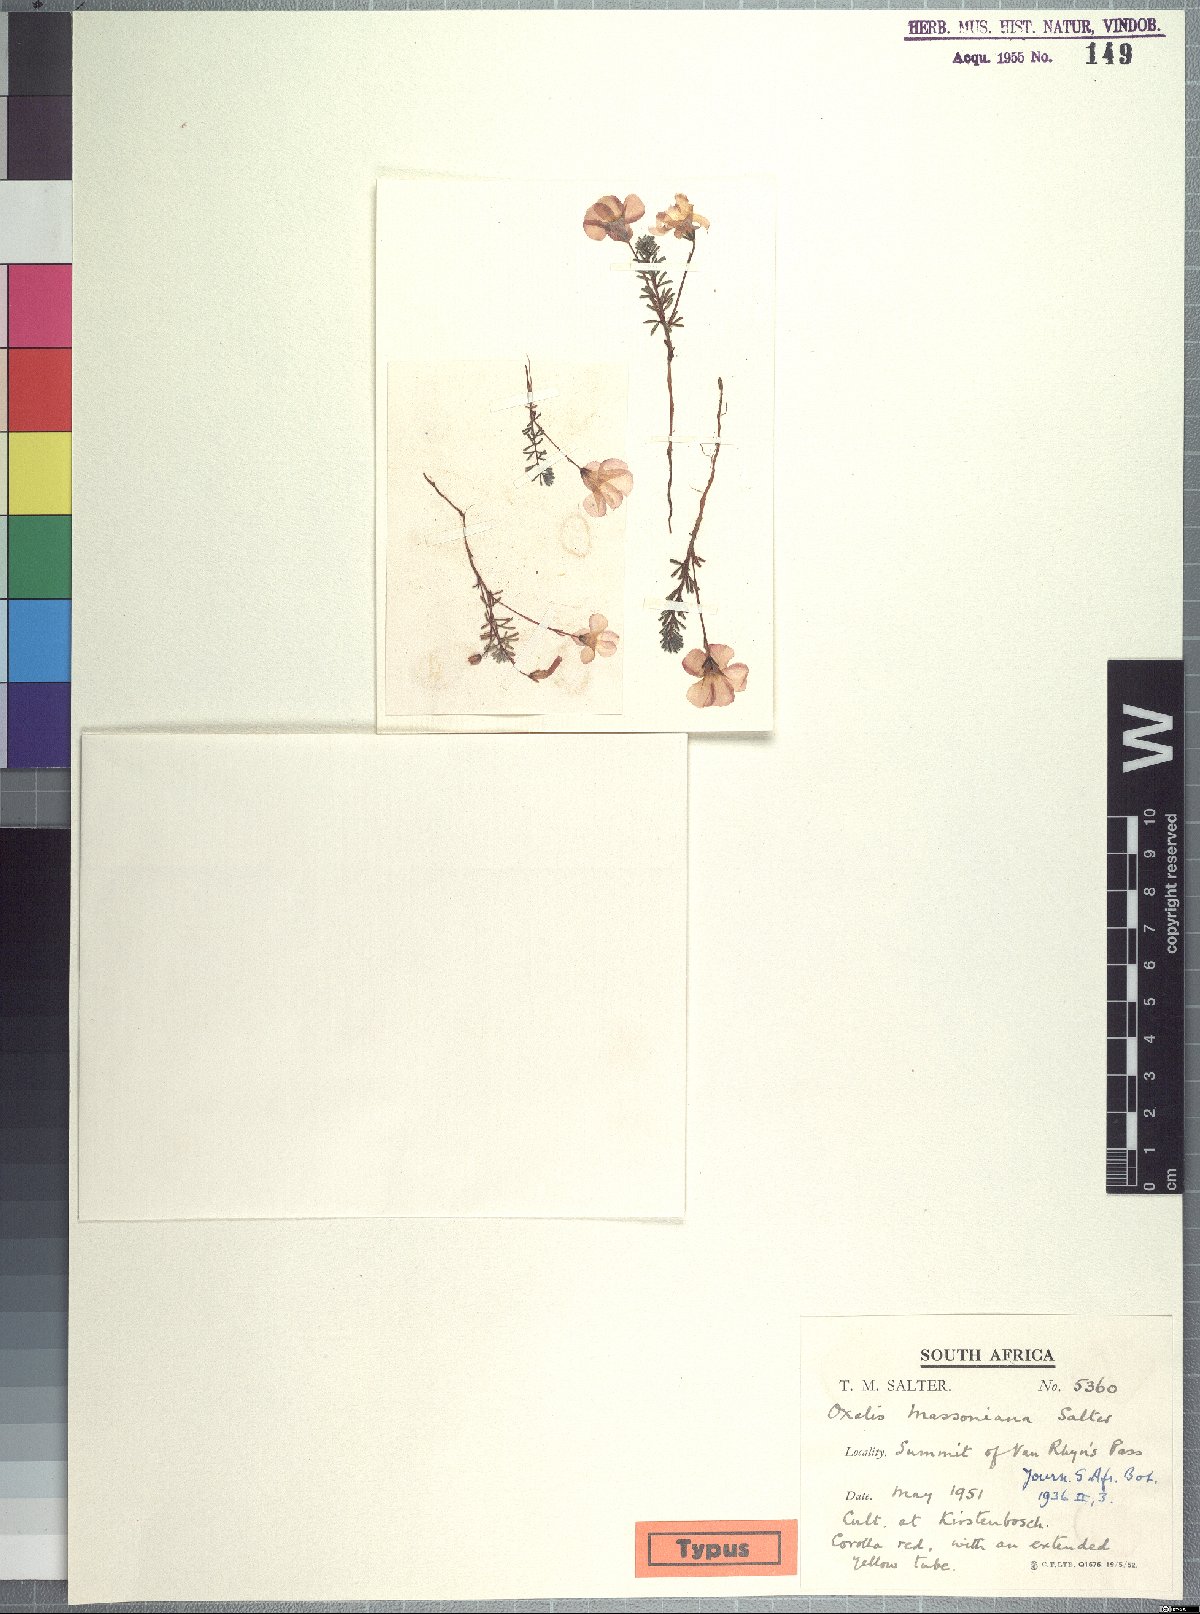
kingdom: Plantae
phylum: Tracheophyta
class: Magnoliopsida
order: Oxalidales
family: Oxalidaceae
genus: Oxalis
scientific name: Oxalis massoniana
